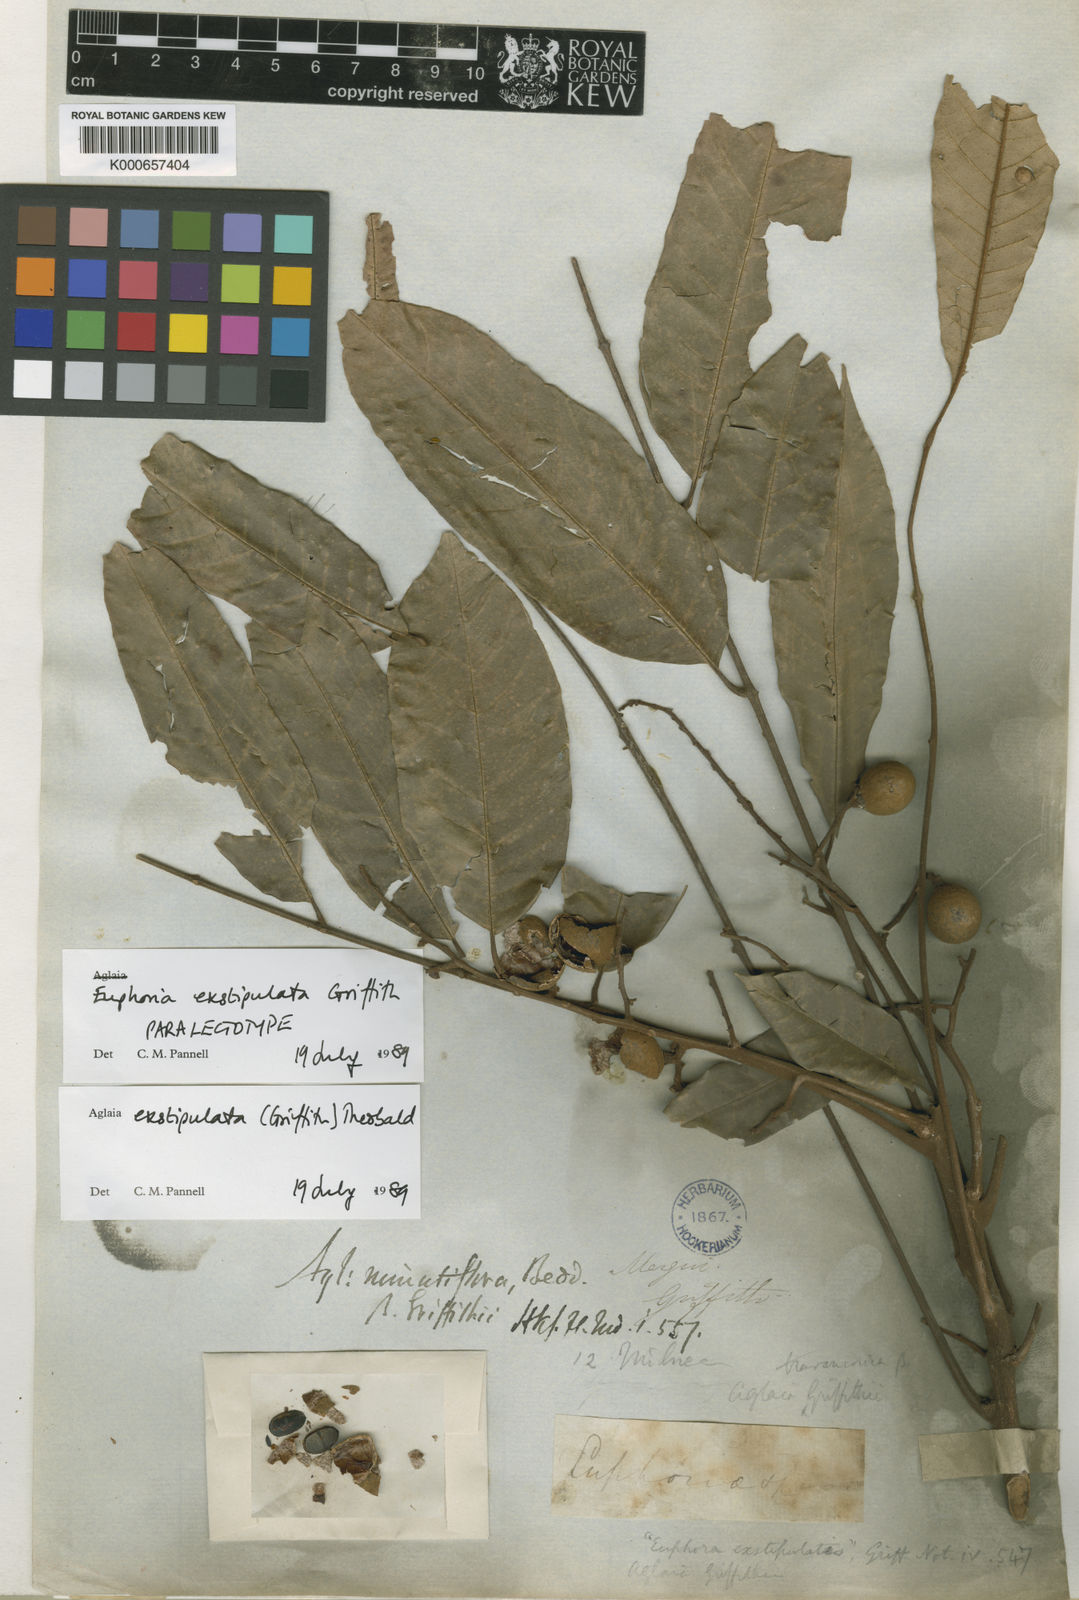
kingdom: Plantae
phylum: Tracheophyta
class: Magnoliopsida
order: Sapindales
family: Meliaceae
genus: Aglaia
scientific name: Aglaia exstipulata
